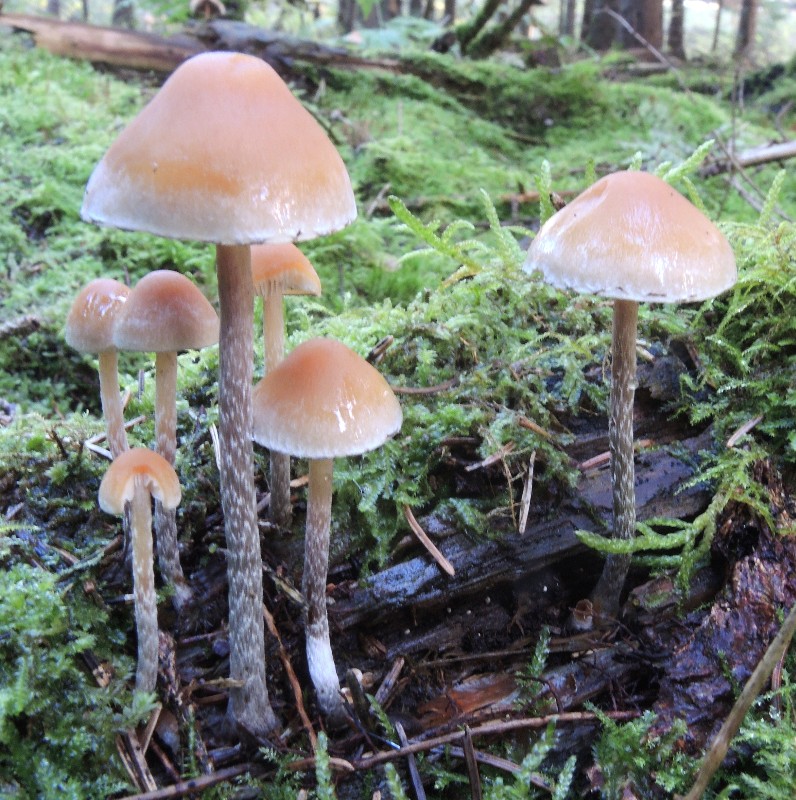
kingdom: Fungi
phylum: Basidiomycota
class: Agaricomycetes
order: Agaricales
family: Strophariaceae
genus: Hypholoma
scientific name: Hypholoma marginatum
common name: enlig svovlhat
